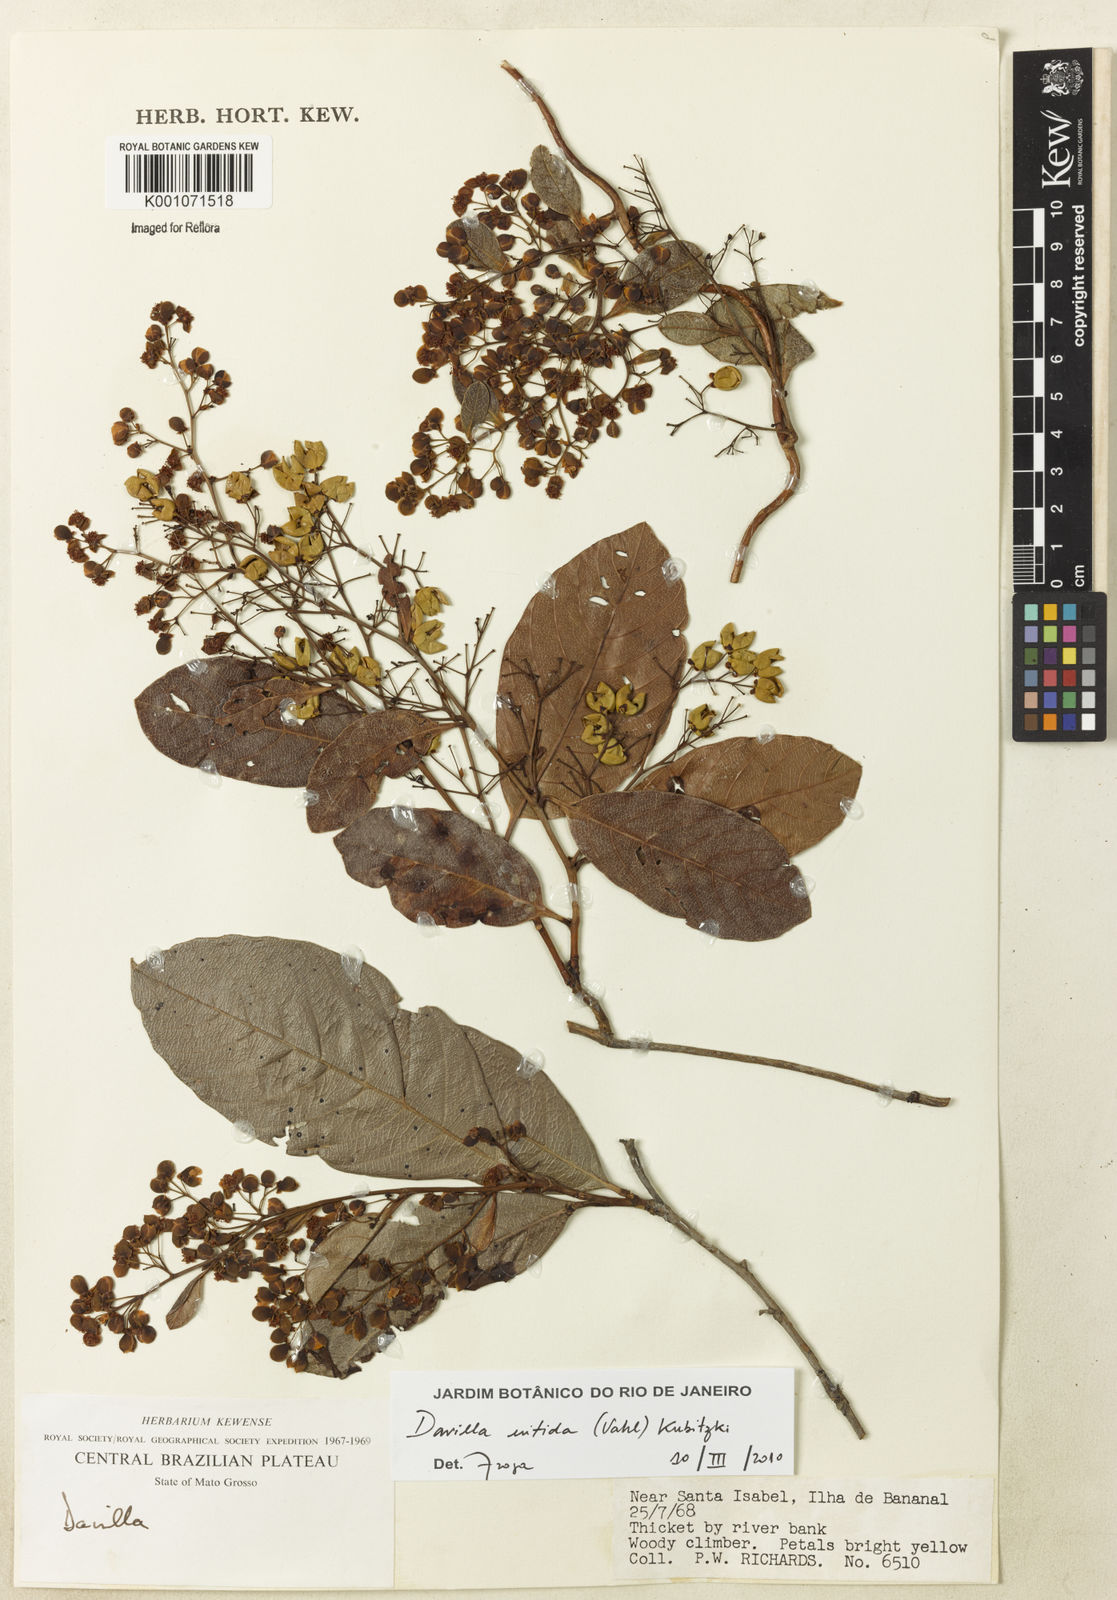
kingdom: Plantae
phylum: Tracheophyta
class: Magnoliopsida
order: Dilleniales
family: Dilleniaceae
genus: Davilla
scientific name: Davilla nitida
